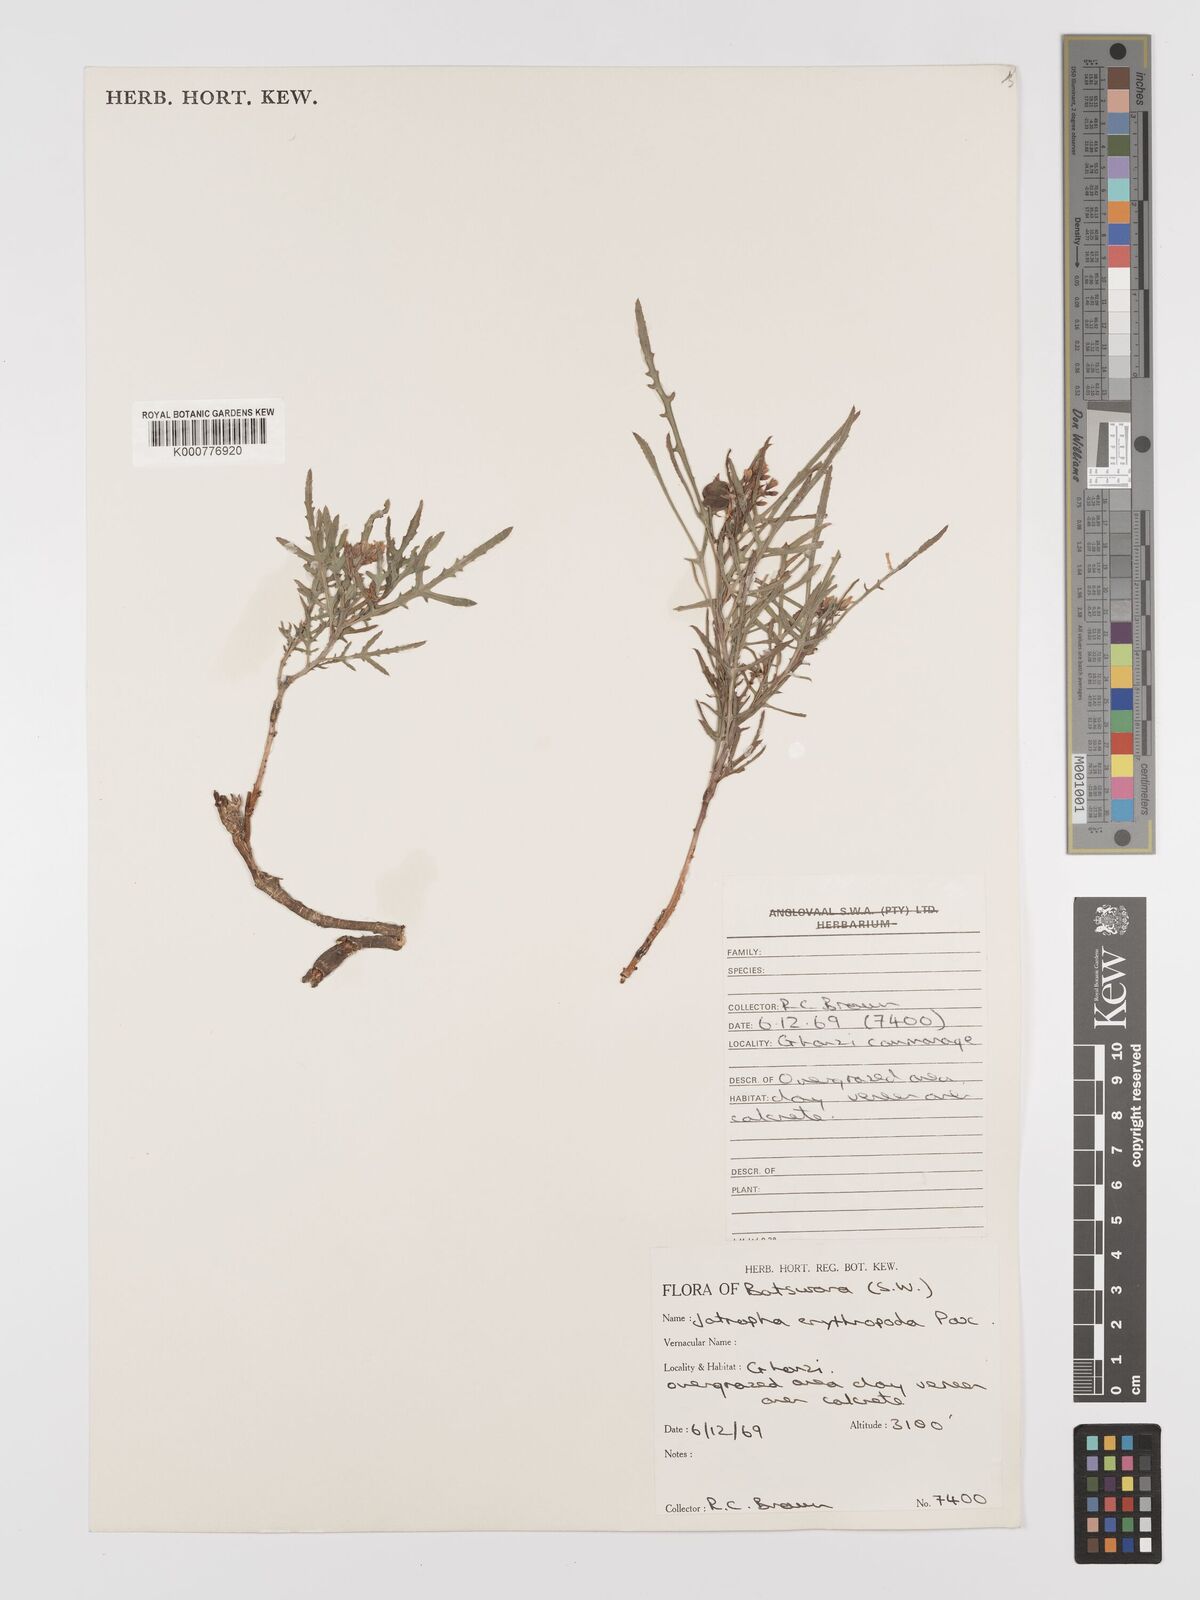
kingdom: Plantae
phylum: Tracheophyta
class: Magnoliopsida
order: Malpighiales
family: Euphorbiaceae
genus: Jatropha
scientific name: Jatropha erythropoda
